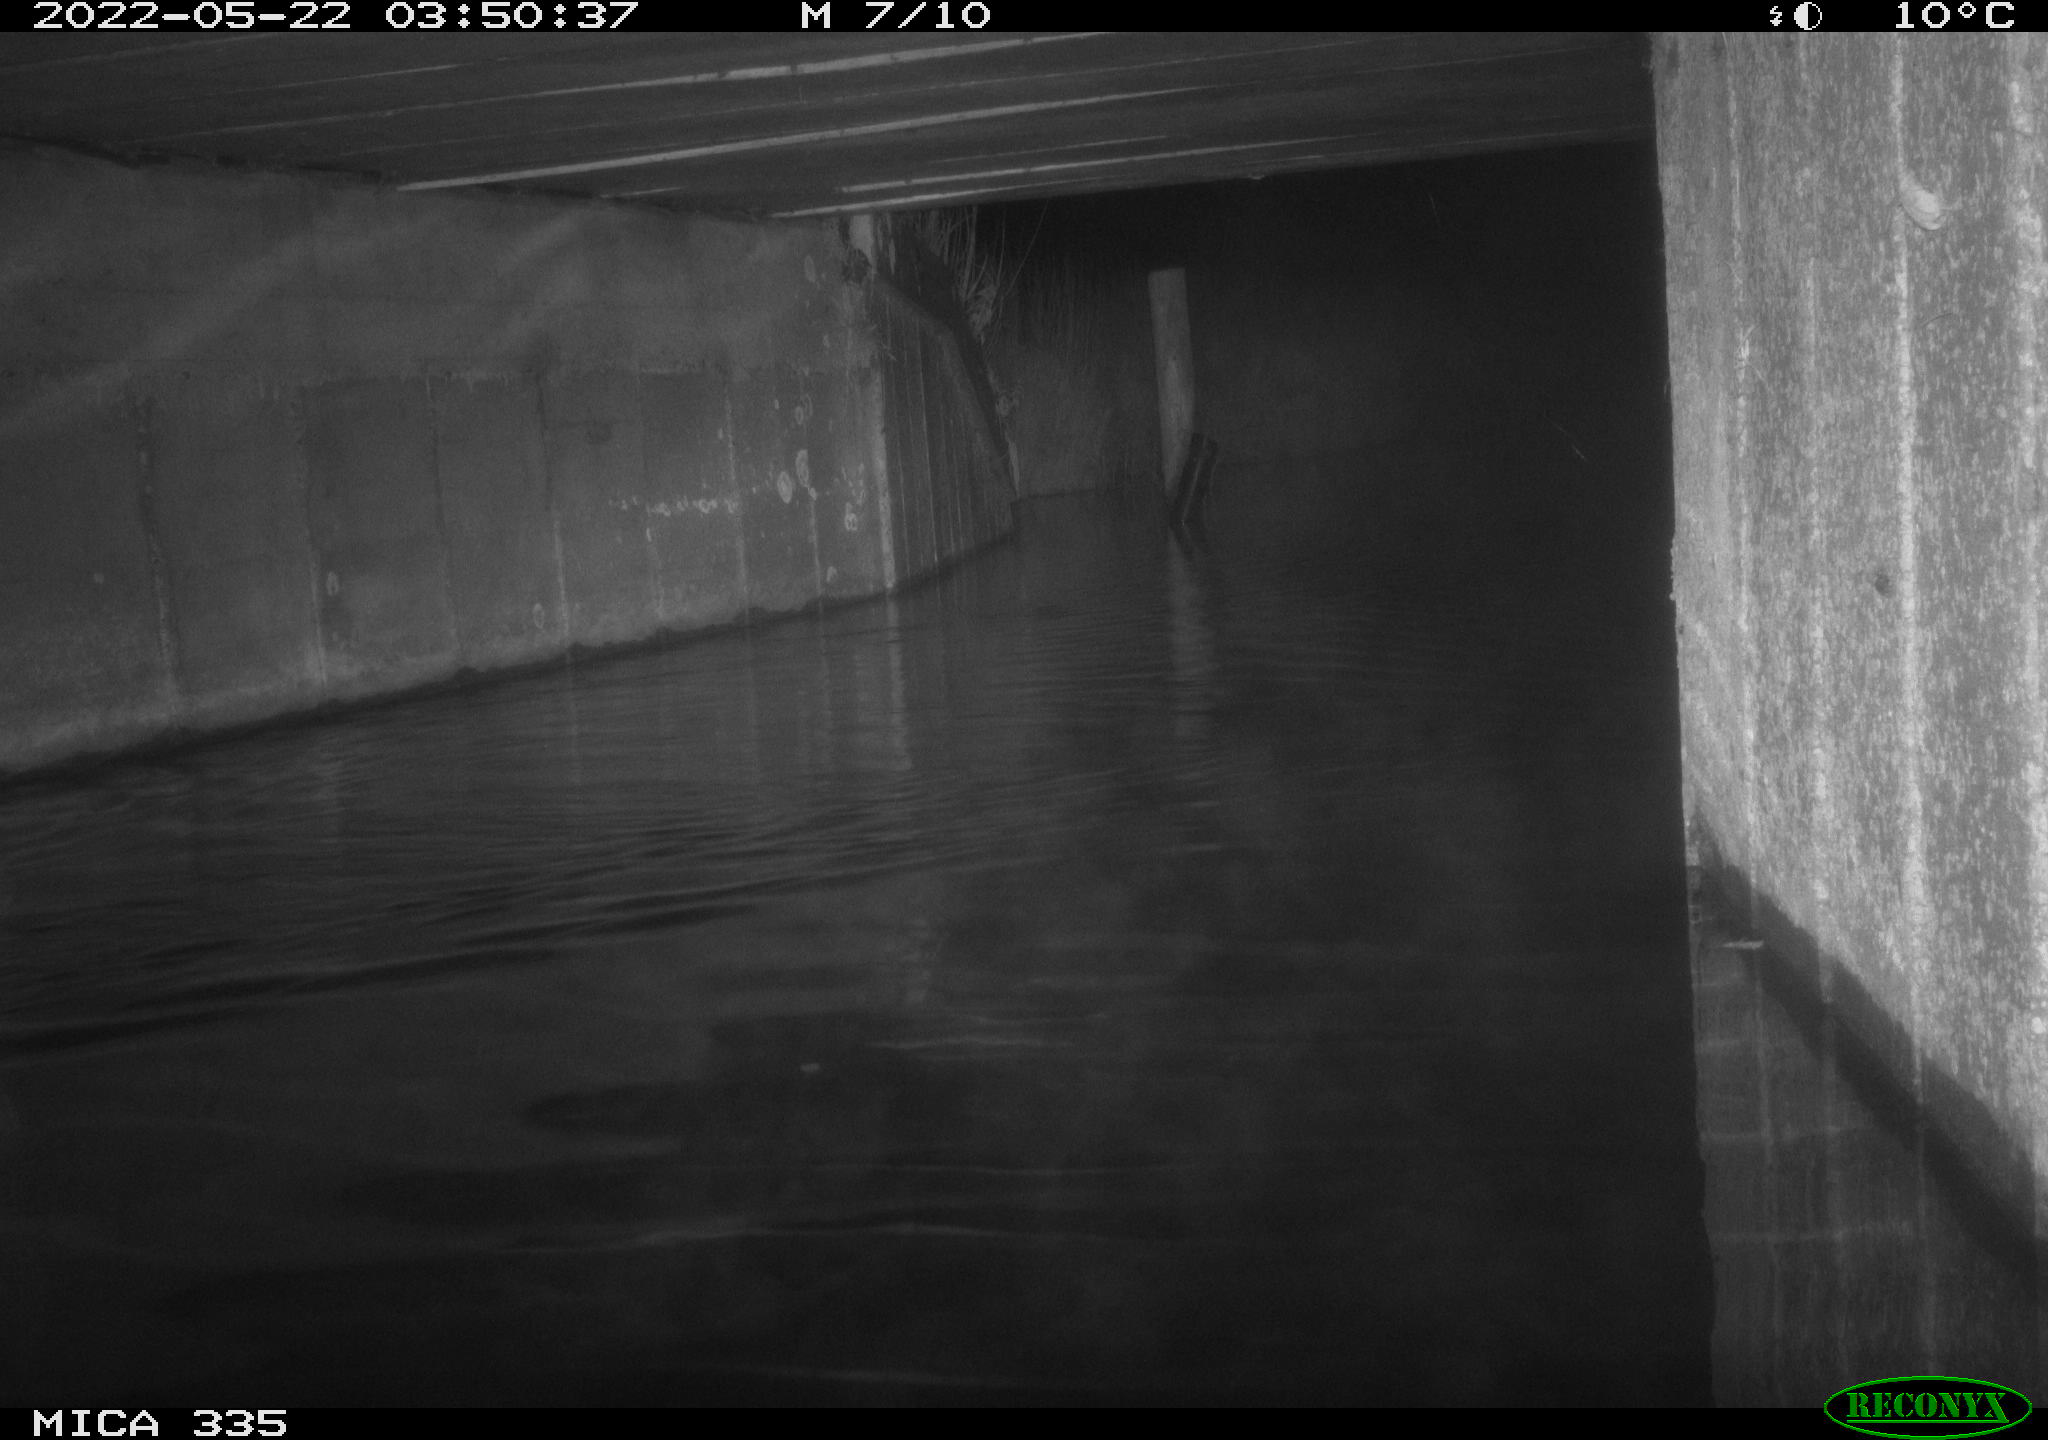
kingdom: Animalia
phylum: Chordata
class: Aves
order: Anseriformes
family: Anatidae
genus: Anas
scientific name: Anas platyrhynchos
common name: Mallard
